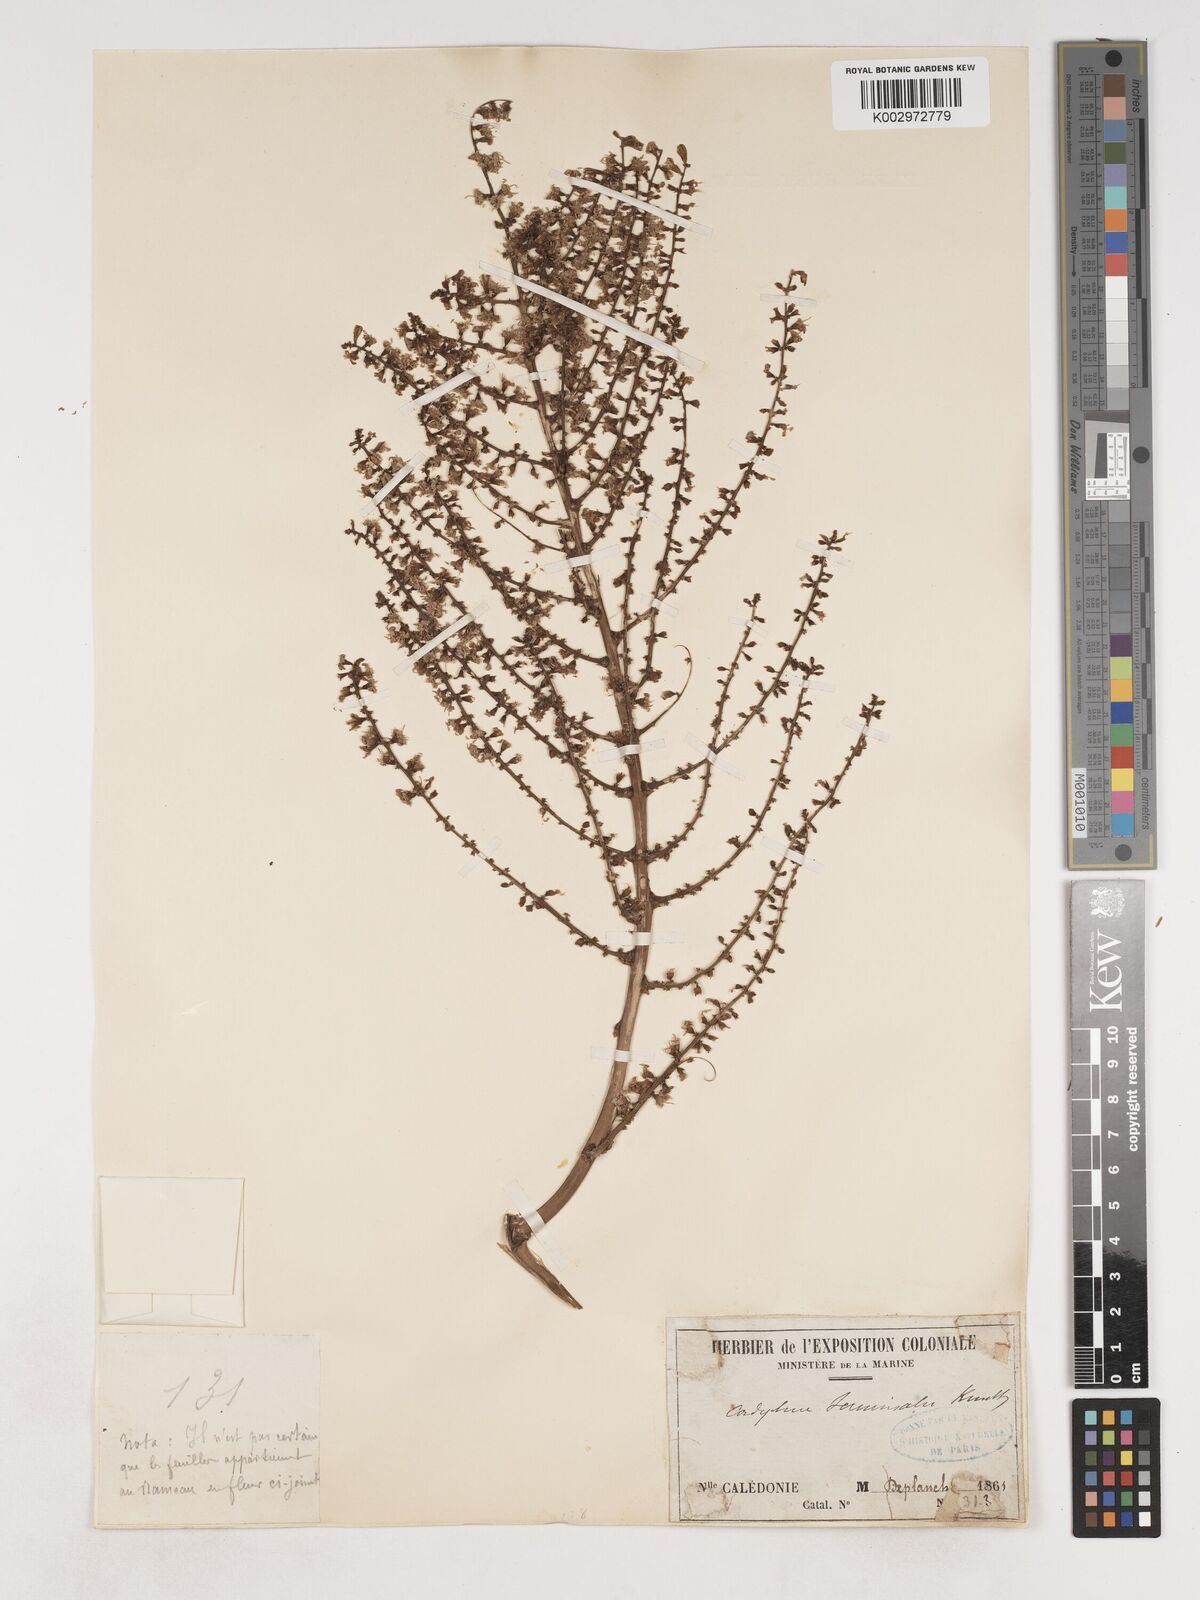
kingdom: Plantae
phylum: Tracheophyta
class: Liliopsida
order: Asparagales
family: Asparagaceae
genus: Cordyline
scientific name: Cordyline fruticosa
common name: Good-luck-plant
